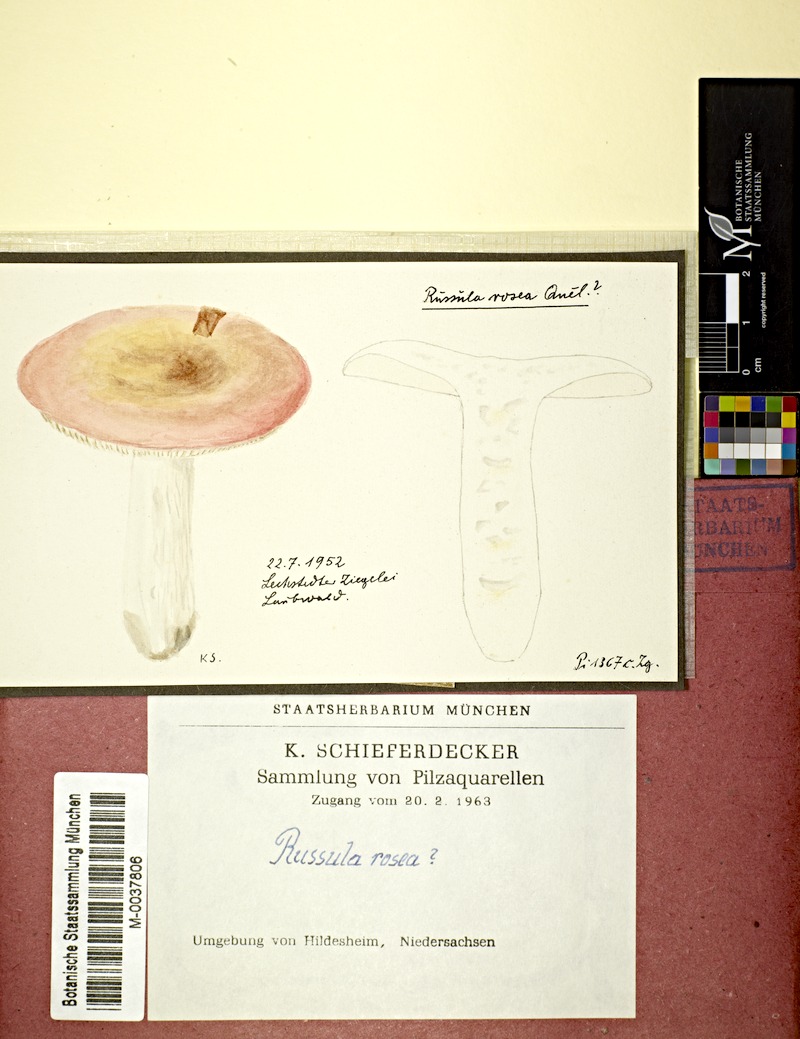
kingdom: Fungi
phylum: Basidiomycota
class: Agaricomycetes
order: Russulales
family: Russulaceae
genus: Russula
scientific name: Russula aurora
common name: Dawn brittlegill
